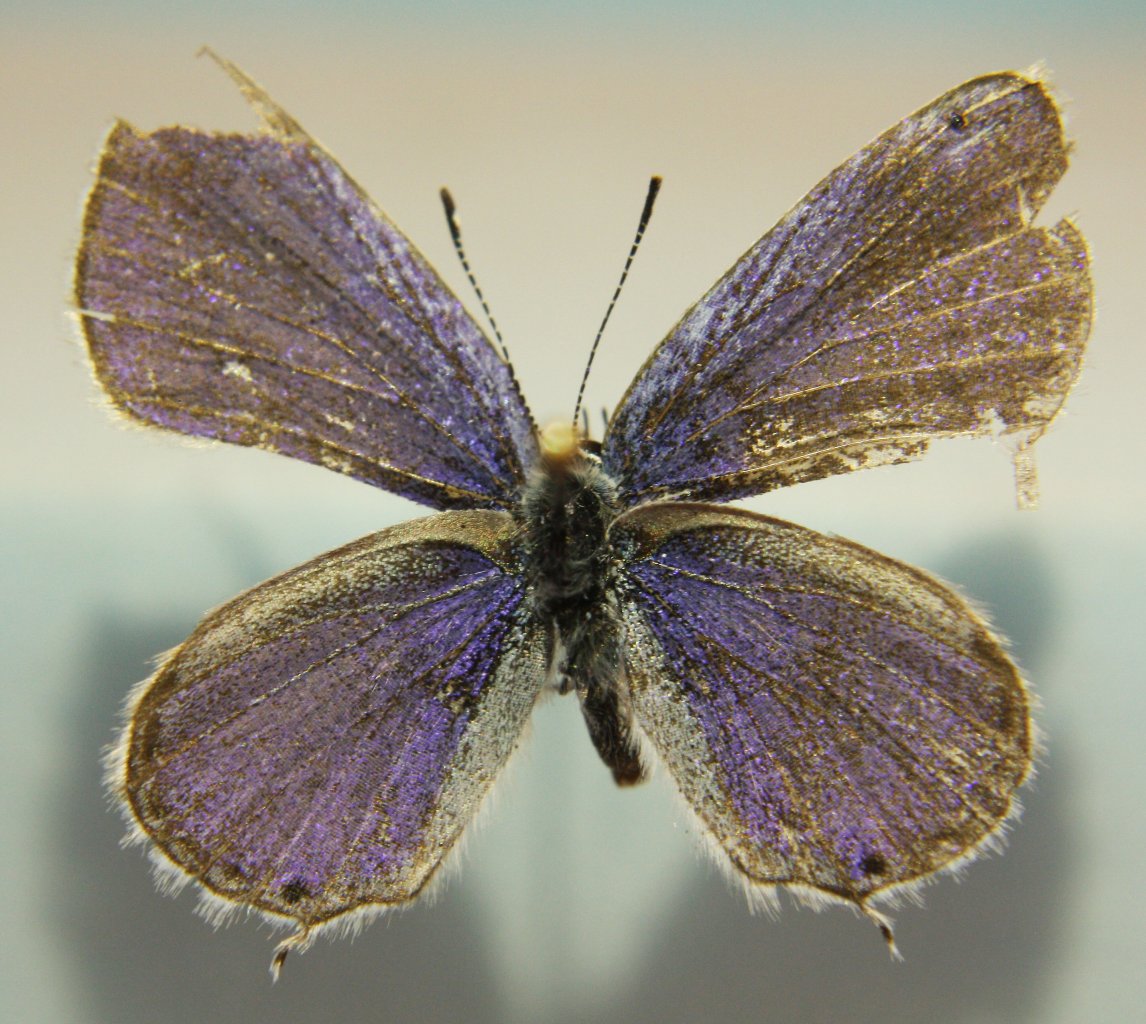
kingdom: Animalia
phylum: Arthropoda
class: Insecta
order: Lepidoptera
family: Lycaenidae
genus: Elkalyce
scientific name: Elkalyce amyntula
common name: Western Tailed-Blue
